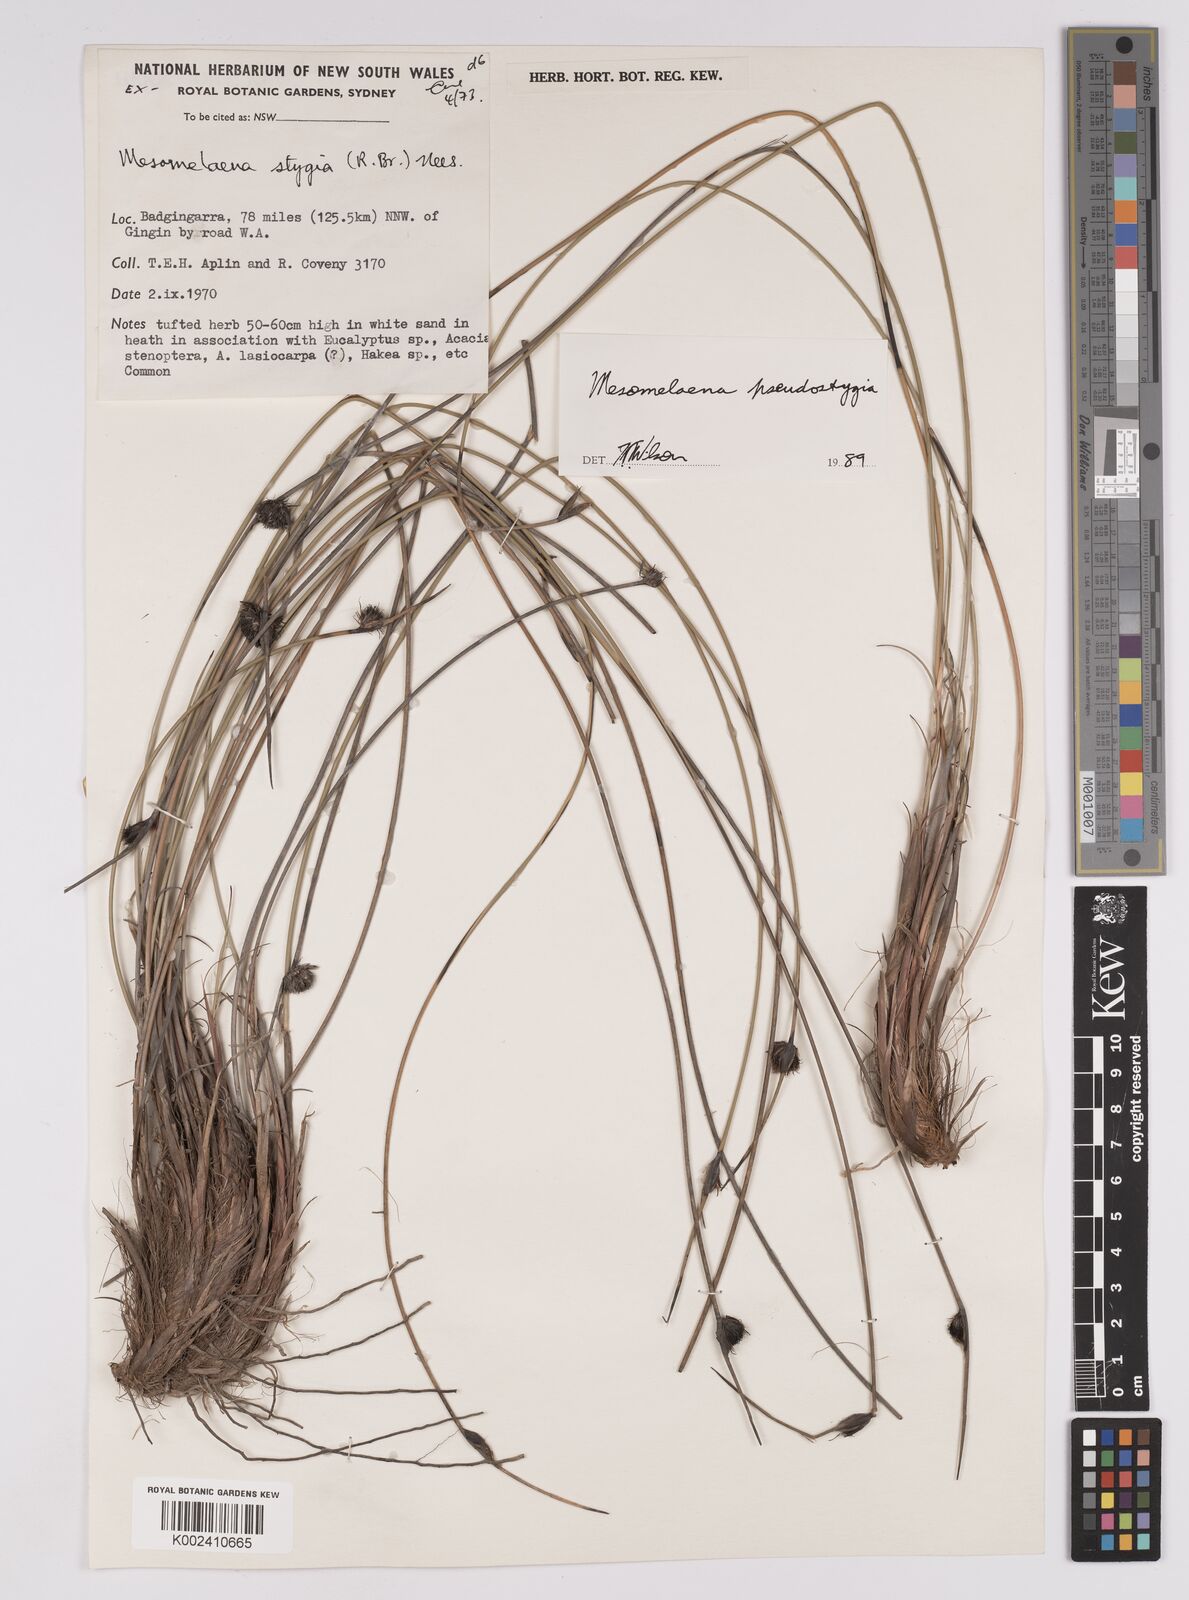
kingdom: Plantae
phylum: Tracheophyta
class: Liliopsida
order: Poales
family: Cyperaceae
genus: Mesomelaena
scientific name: Mesomelaena pseudostygia
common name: Semaphore sedge
